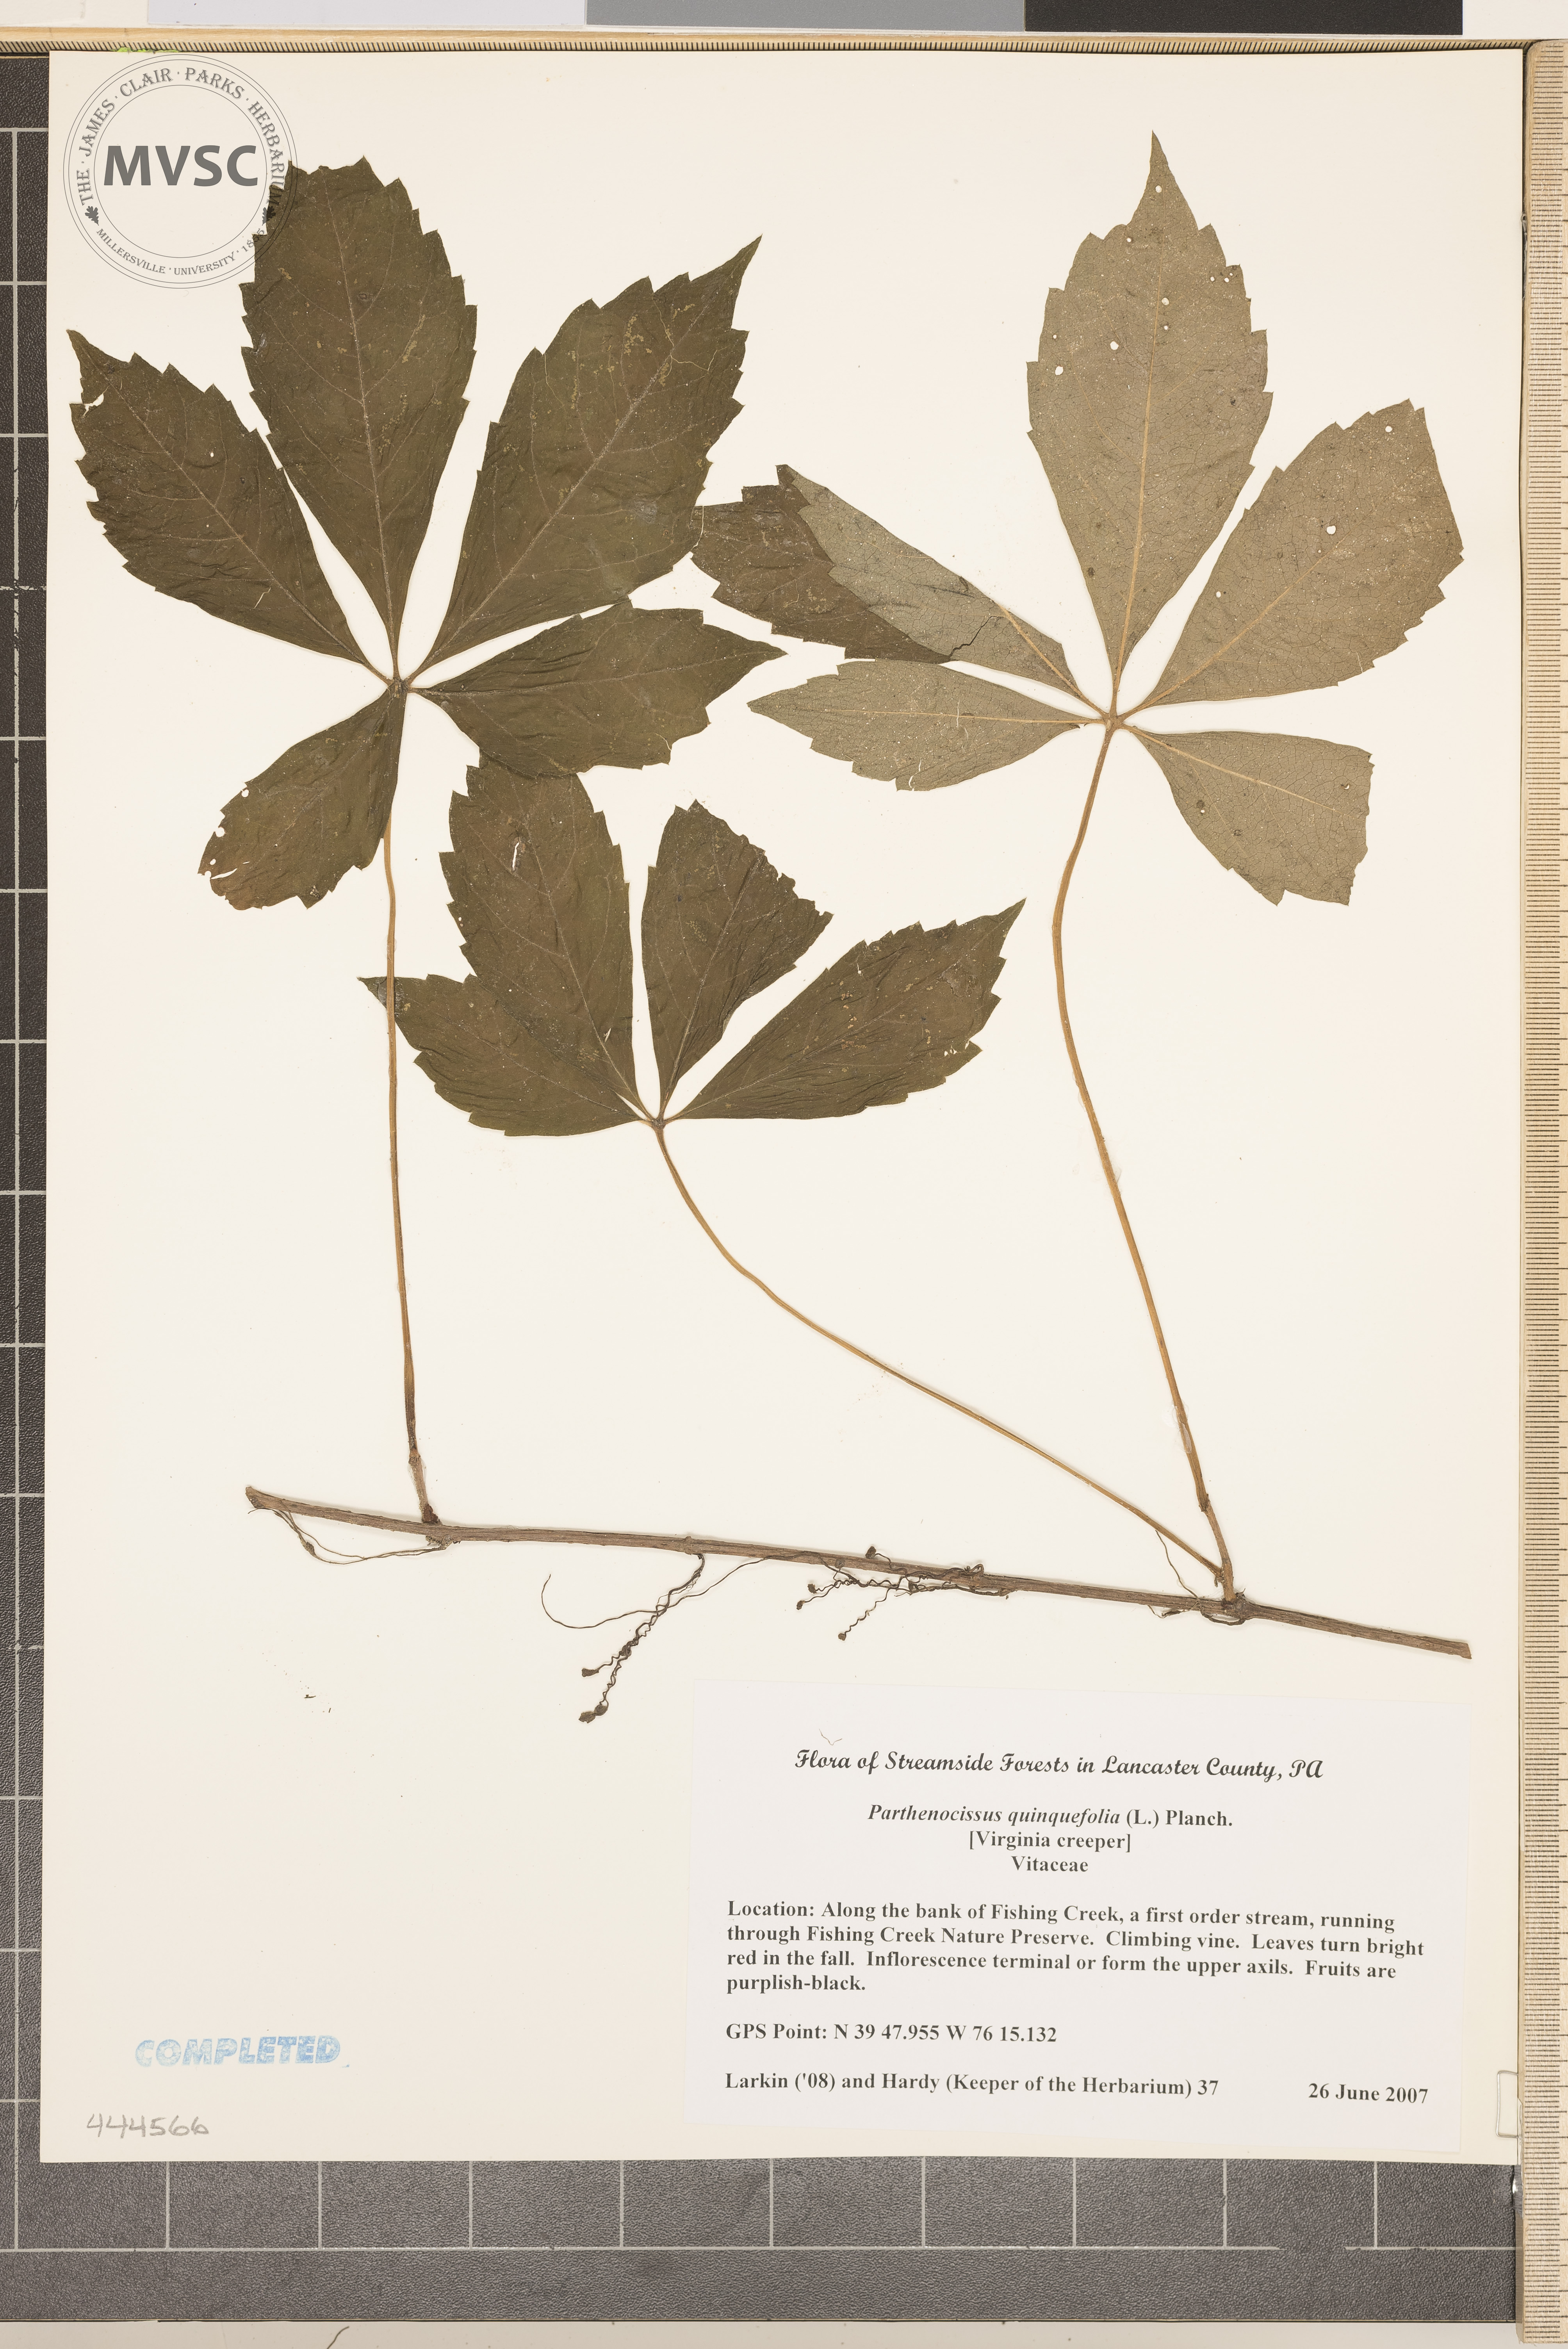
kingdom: Plantae
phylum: Tracheophyta
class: Magnoliopsida
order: Vitales
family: Vitaceae
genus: Parthenocissus
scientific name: Parthenocissus quinquefolia
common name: Virginia Creeper
